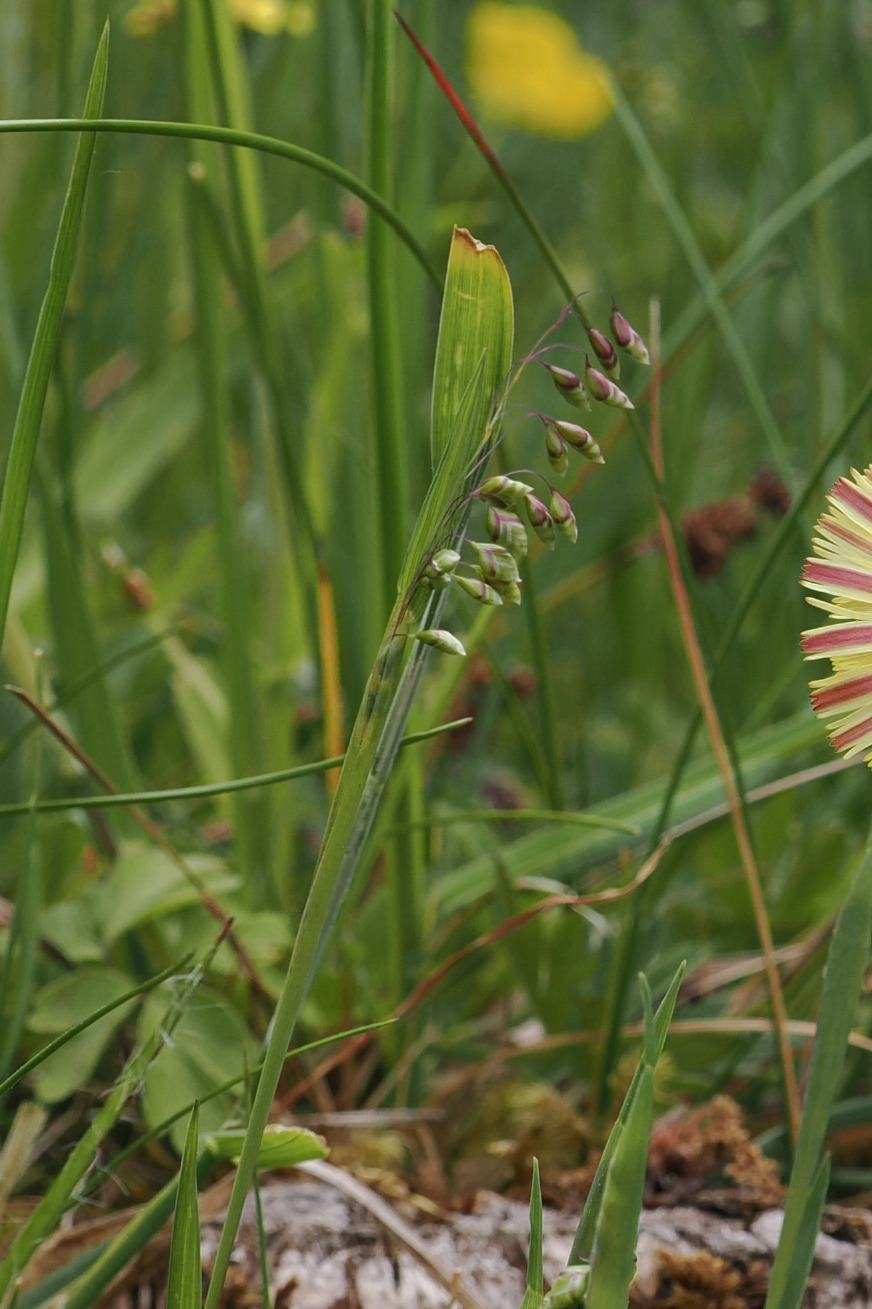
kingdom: Plantae
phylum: Tracheophyta
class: Liliopsida
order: Poales
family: Poaceae
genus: Briza
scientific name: Briza media
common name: Hjertegræs
